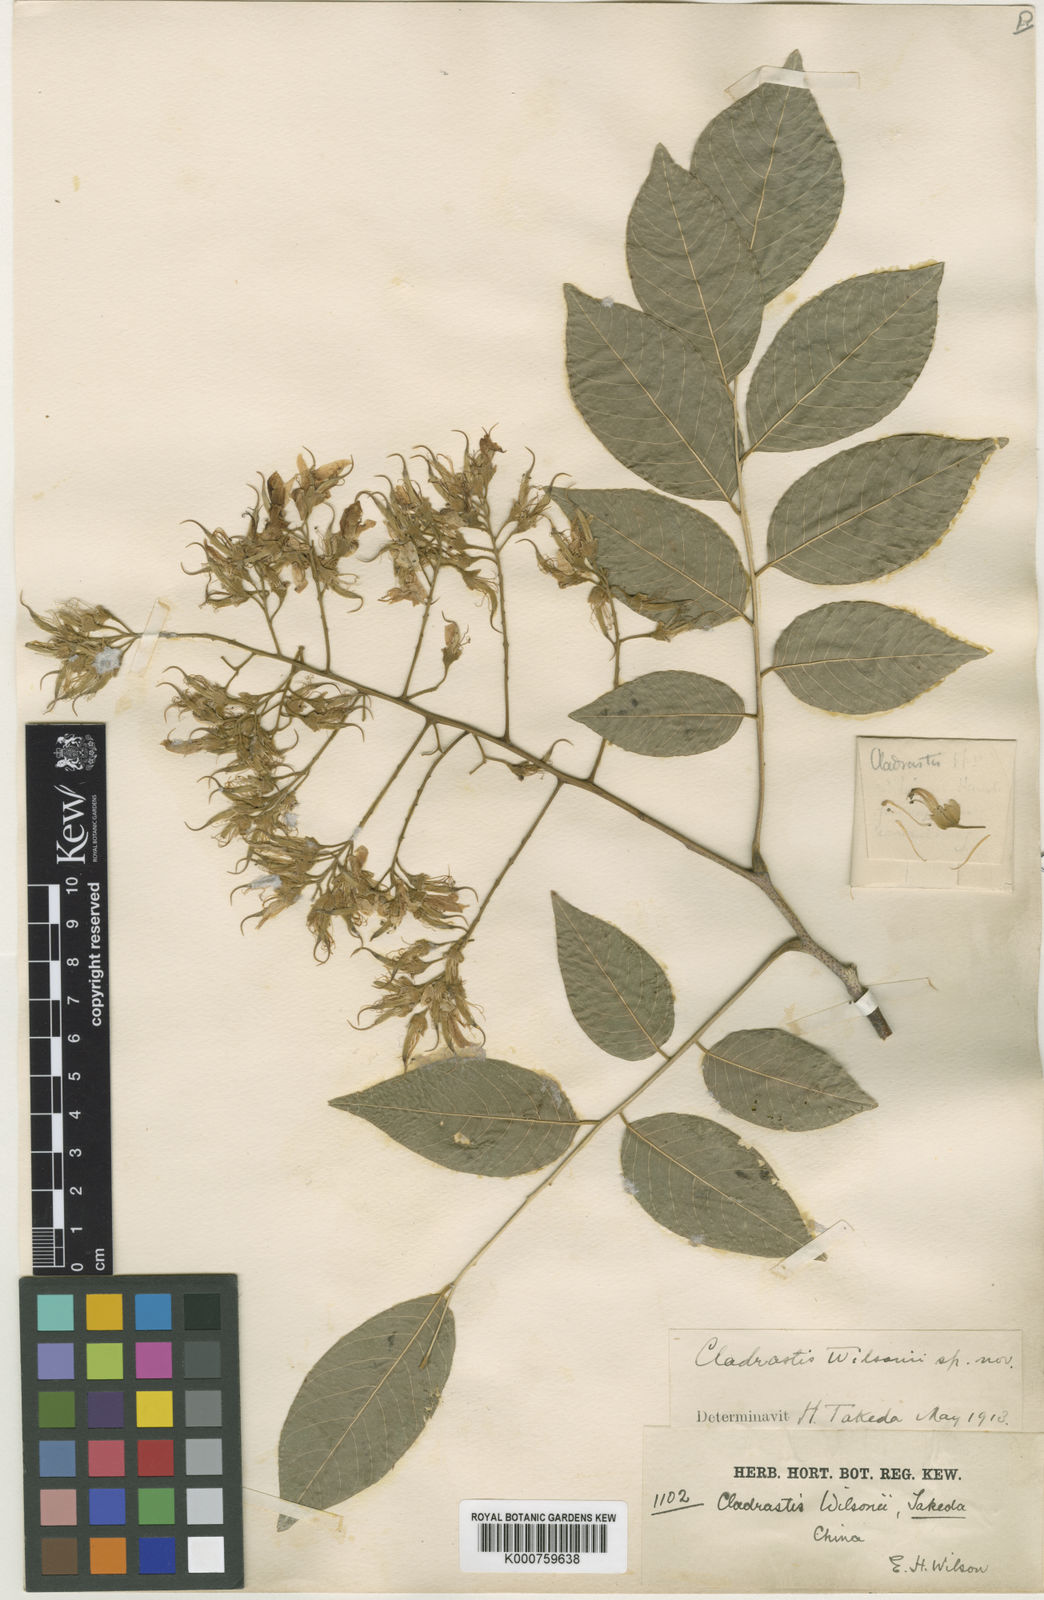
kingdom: Plantae
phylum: Tracheophyta
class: Magnoliopsida
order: Fabales
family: Fabaceae
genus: Cladrastis
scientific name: Cladrastis wilsonii
